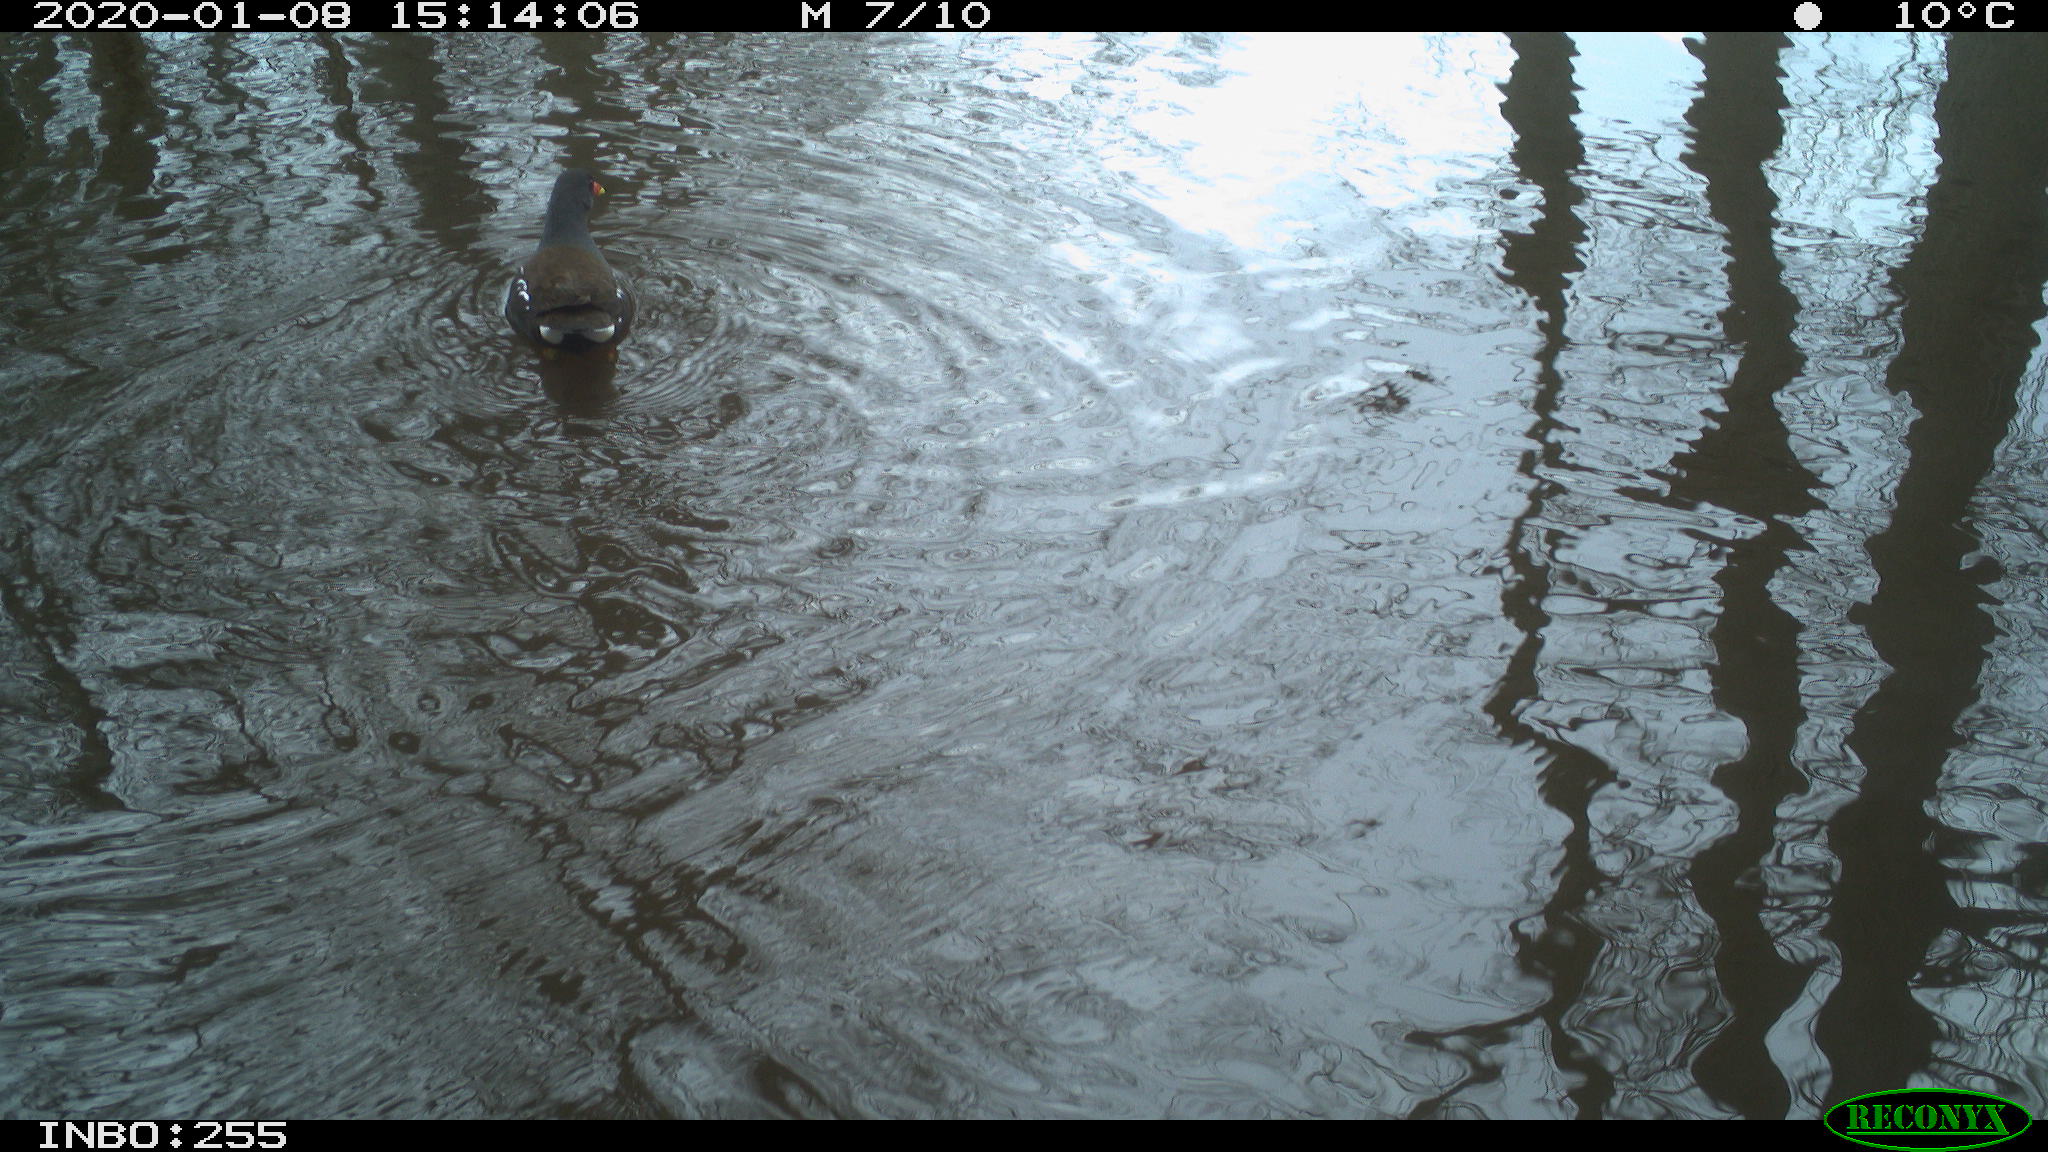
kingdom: Animalia
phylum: Chordata
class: Aves
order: Gruiformes
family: Rallidae
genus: Gallinula
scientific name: Gallinula chloropus
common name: Common moorhen
